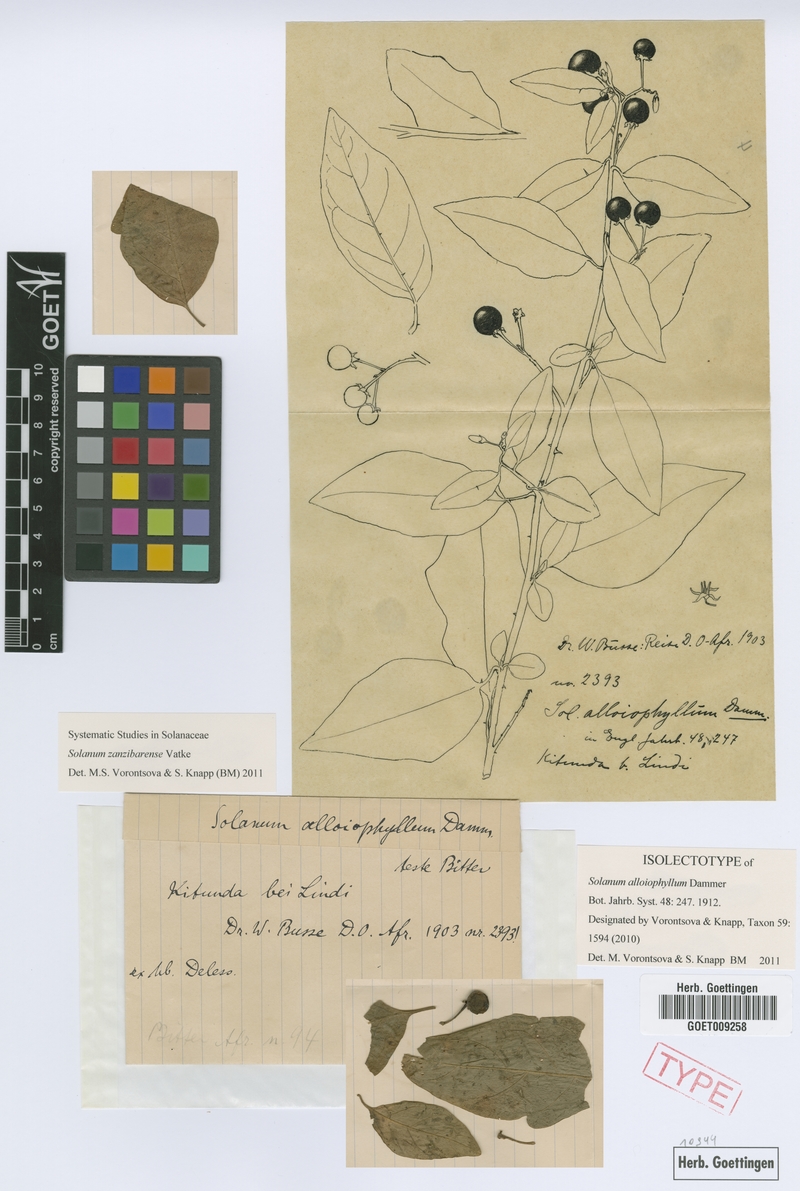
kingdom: Plantae
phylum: Tracheophyta
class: Magnoliopsida
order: Solanales
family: Solanaceae
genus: Solanum
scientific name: Solanum zanzibarense
